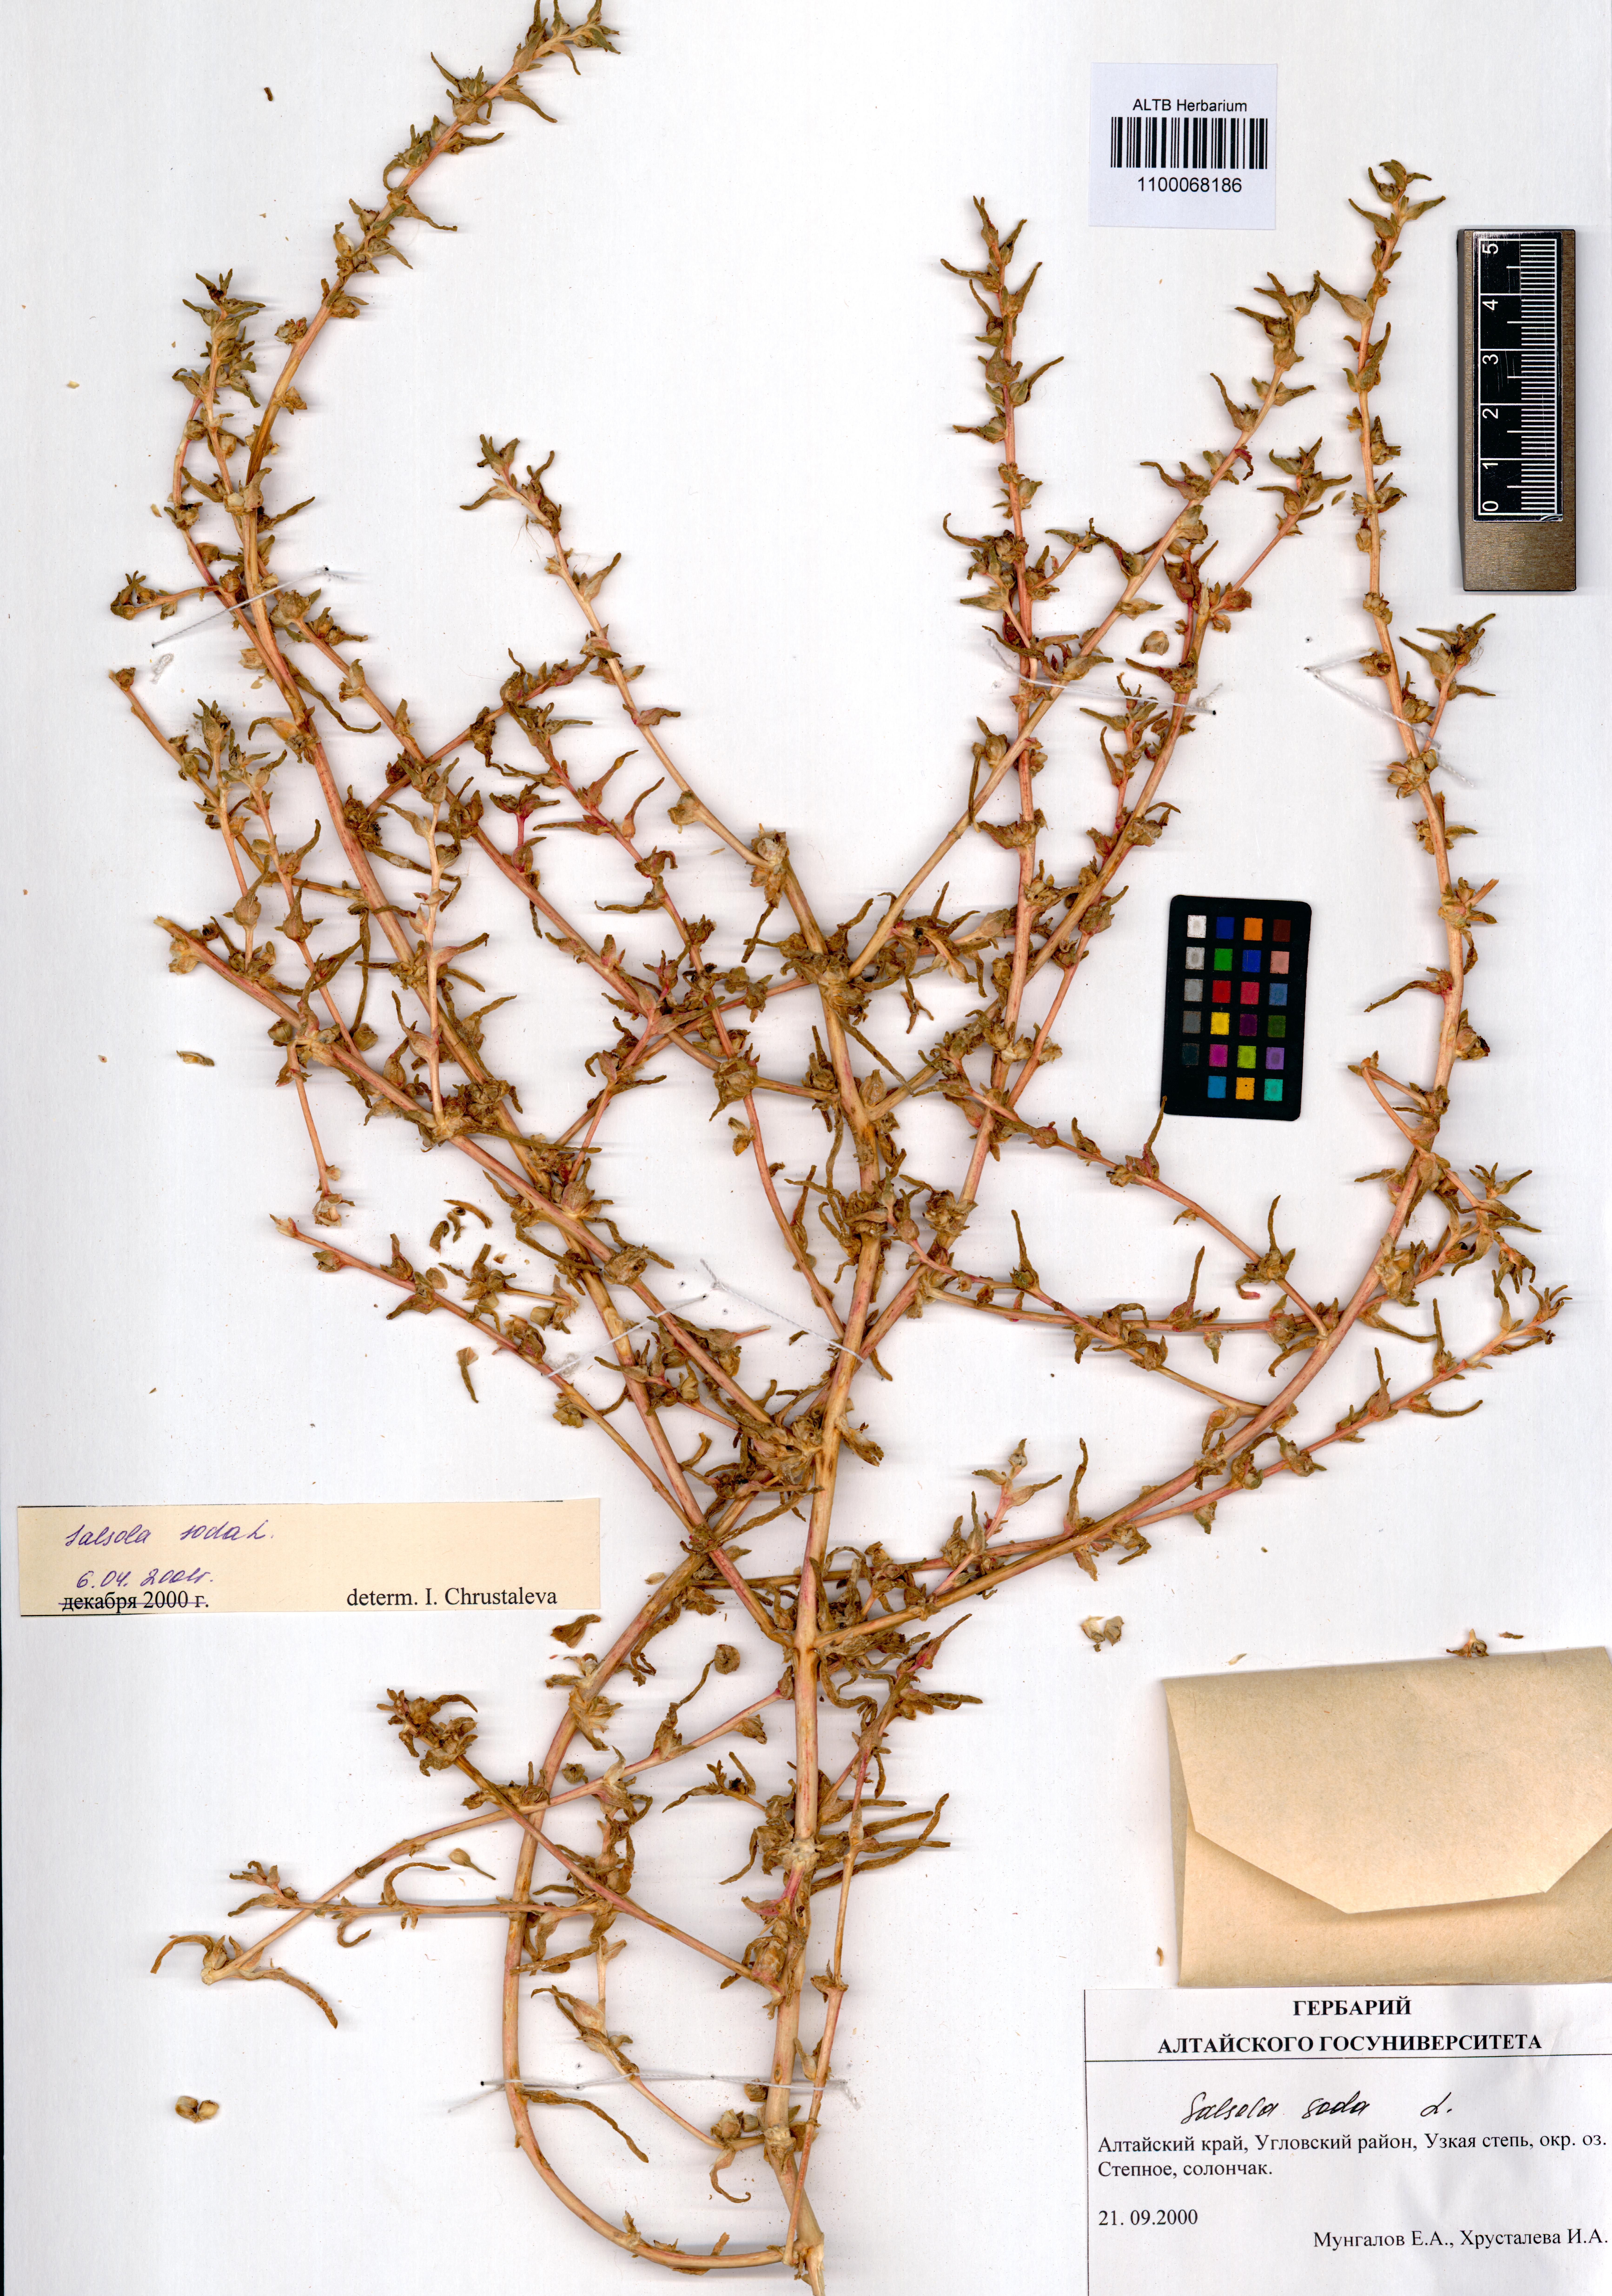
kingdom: Plantae
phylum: Tracheophyta
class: Magnoliopsida
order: Caryophyllales
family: Amaranthaceae
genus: Soda
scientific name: Soda inermis
